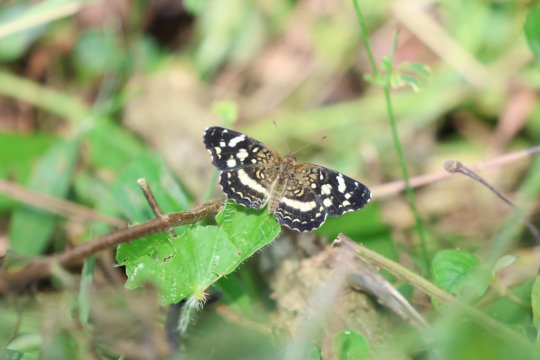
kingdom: Animalia
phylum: Arthropoda
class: Insecta
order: Lepidoptera
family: Nymphalidae
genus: Anthanassa
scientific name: Anthanassa tulcis
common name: Pale-banded Crescent
